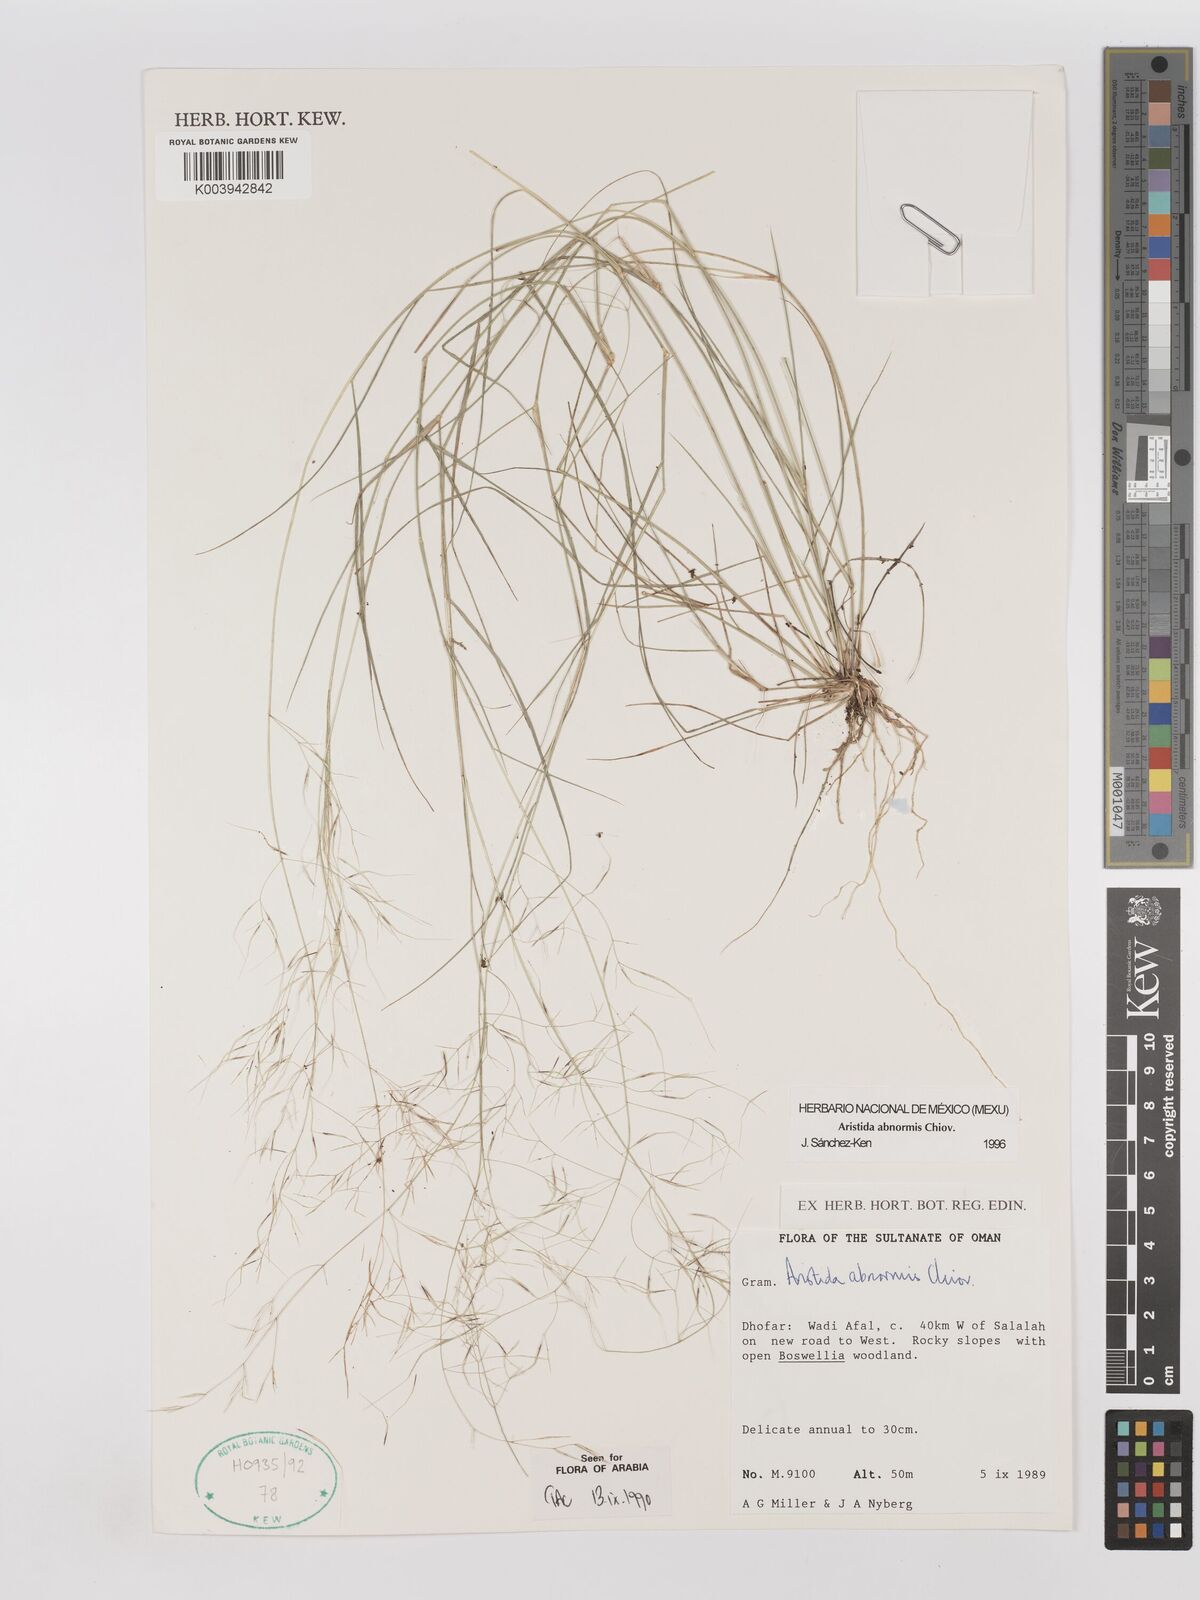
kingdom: Plantae
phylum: Tracheophyta
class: Liliopsida
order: Poales
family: Poaceae
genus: Aristida
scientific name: Aristida abnormis
